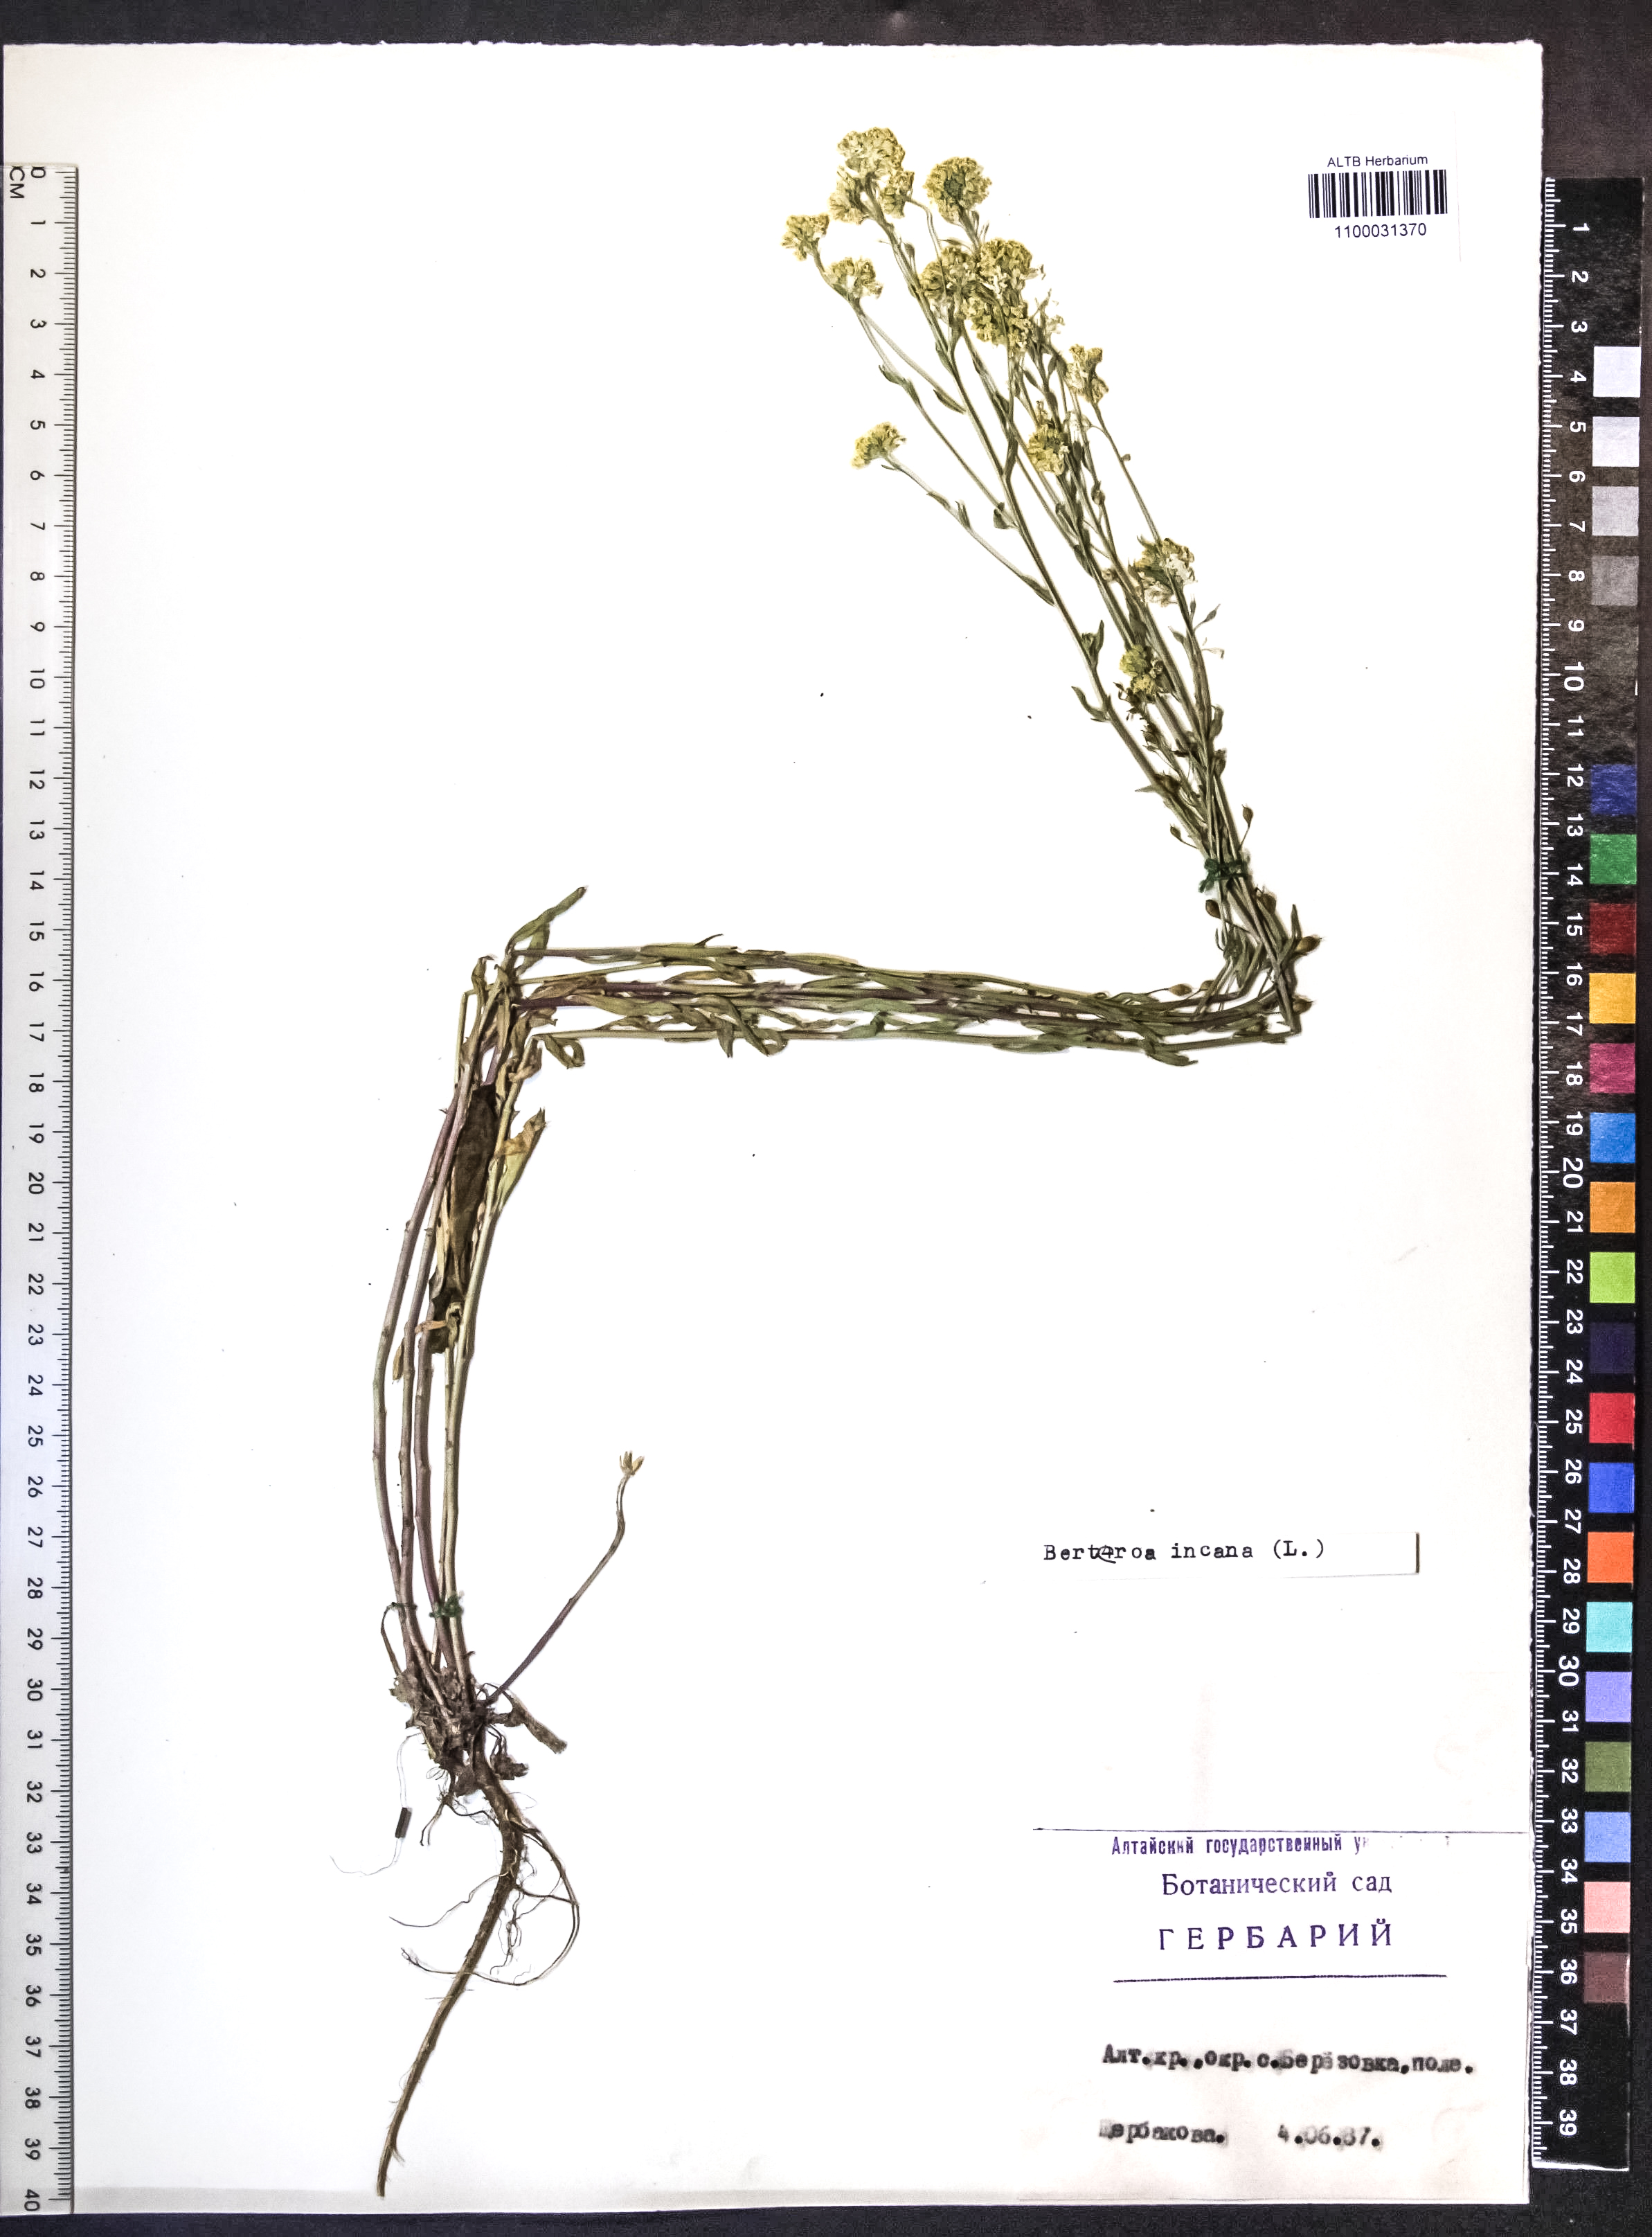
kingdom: Plantae
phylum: Tracheophyta
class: Magnoliopsida
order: Brassicales
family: Brassicaceae
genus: Berteroa
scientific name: Berteroa incana
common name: Hoary alison
